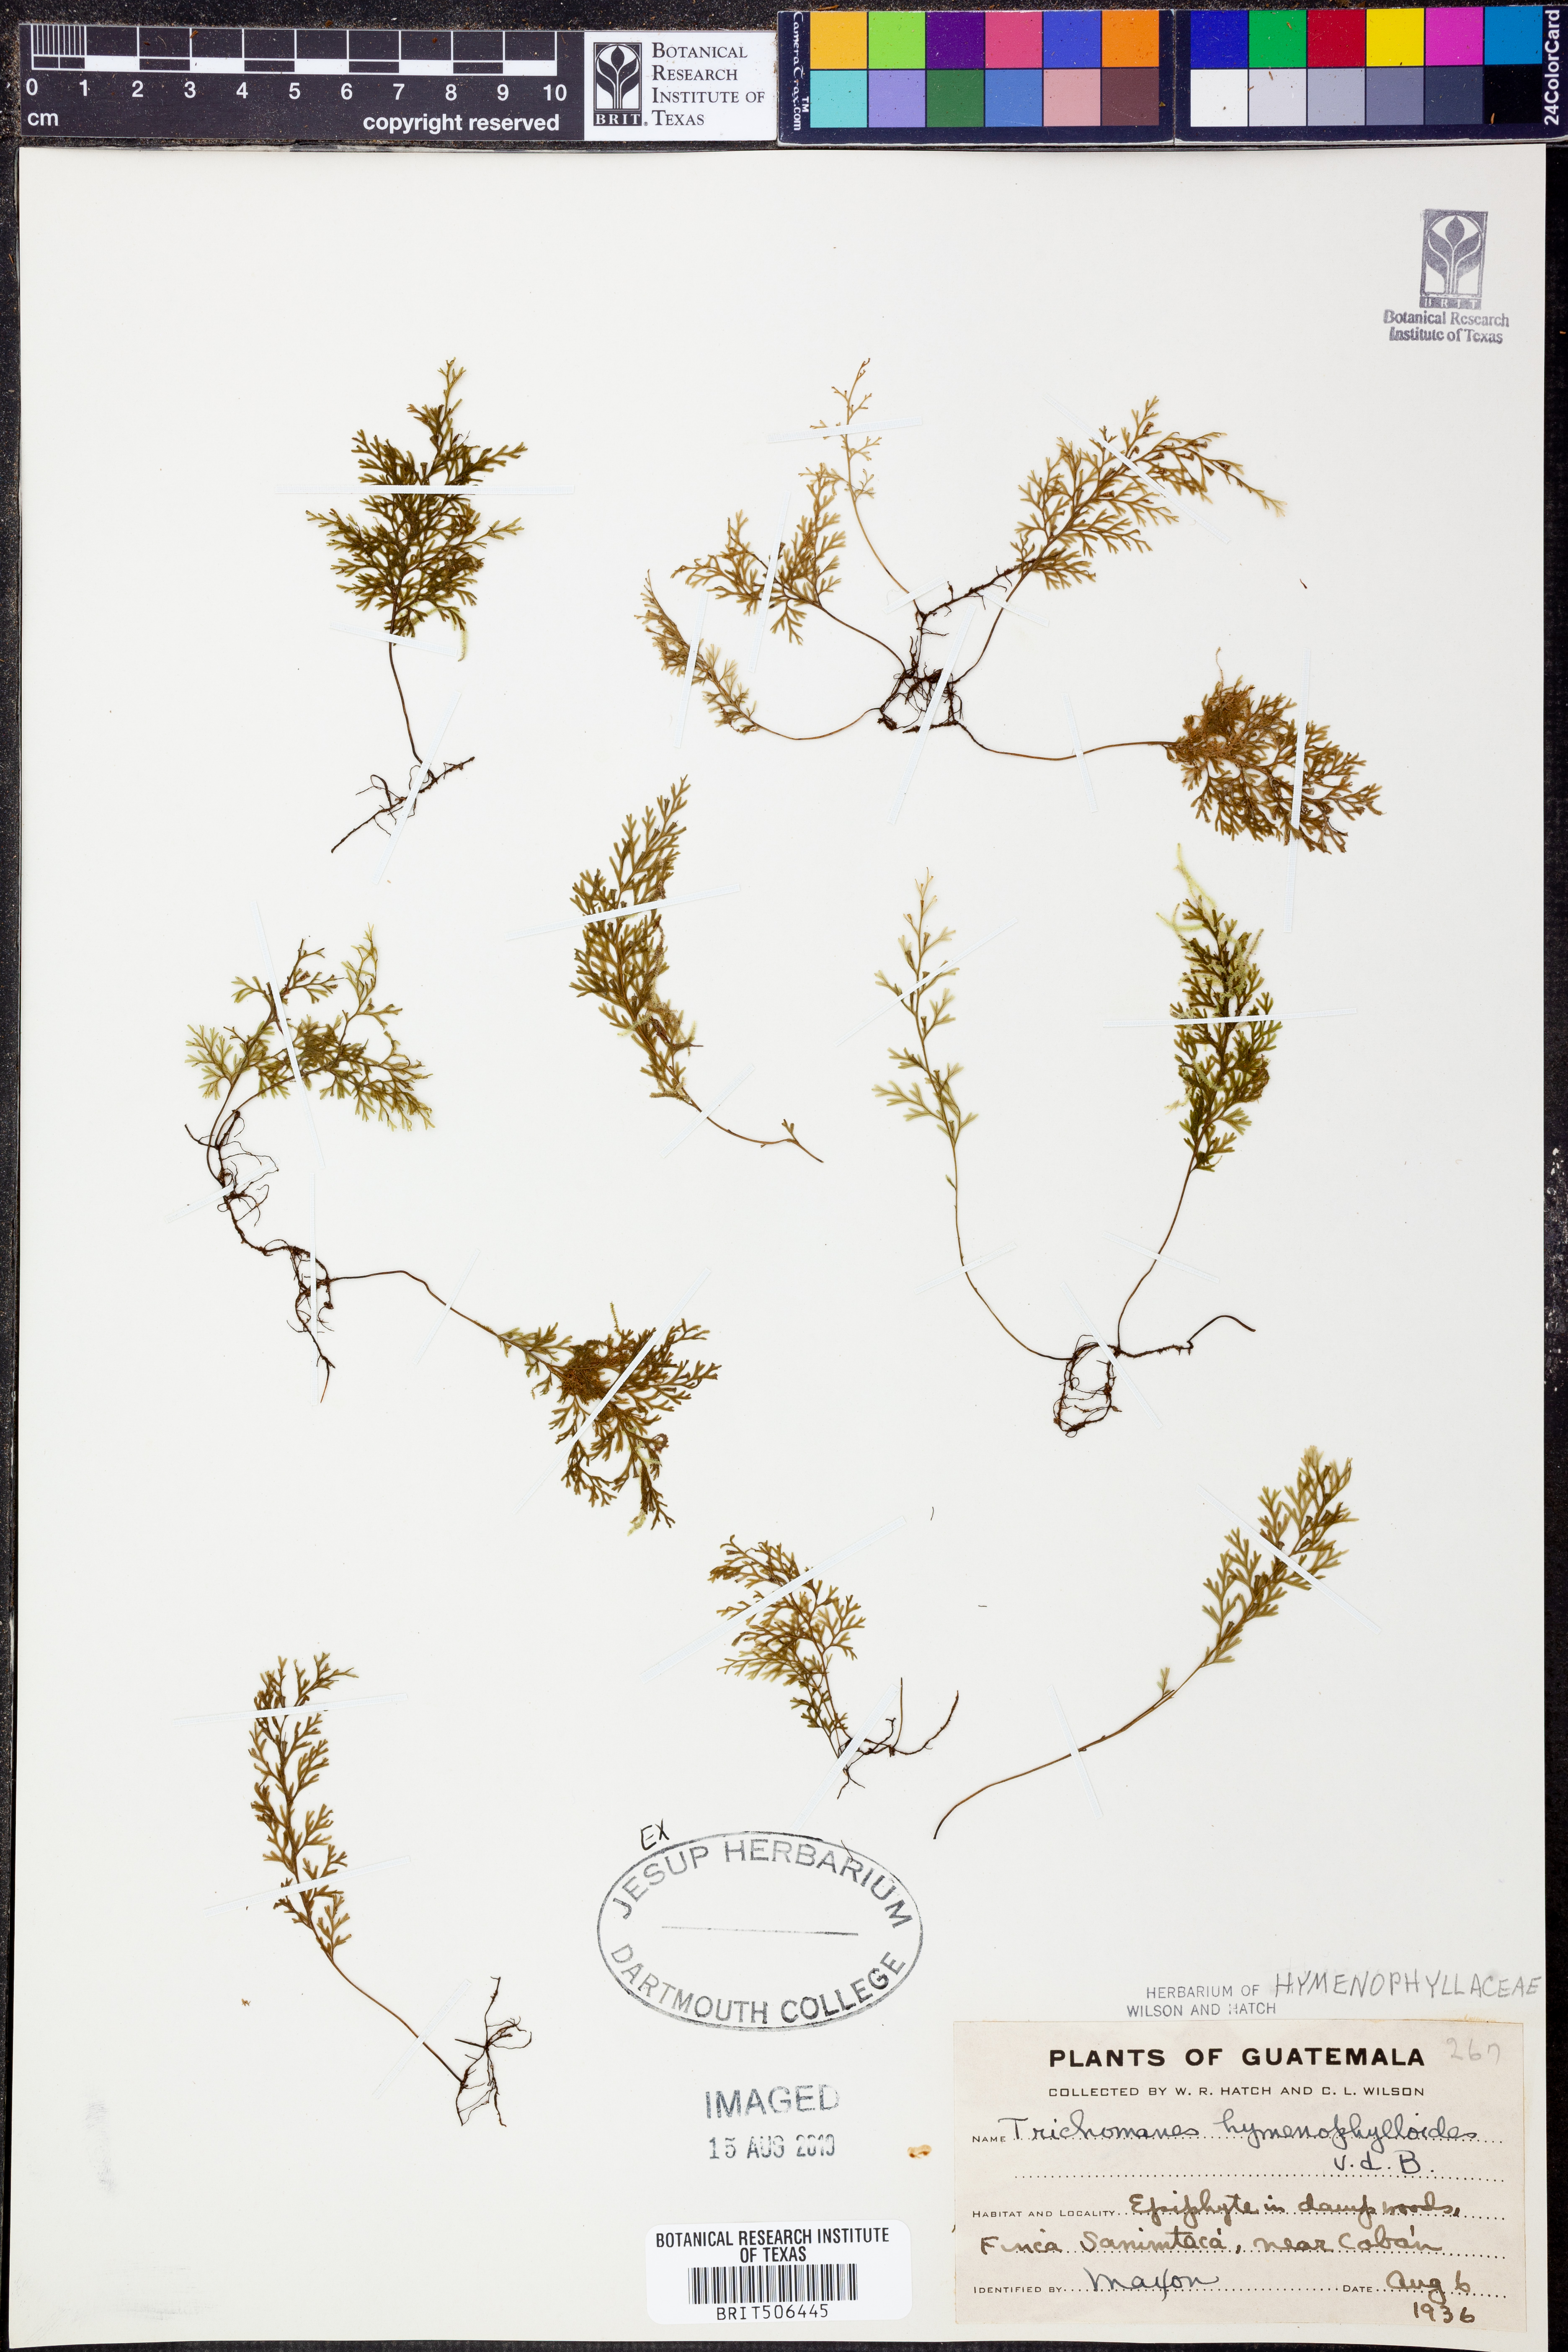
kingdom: Plantae
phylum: Tracheophyta
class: Polypodiopsida
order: Hymenophyllales
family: Hymenophyllaceae
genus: Polyphlebium
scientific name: Polyphlebium hymenophylloides
